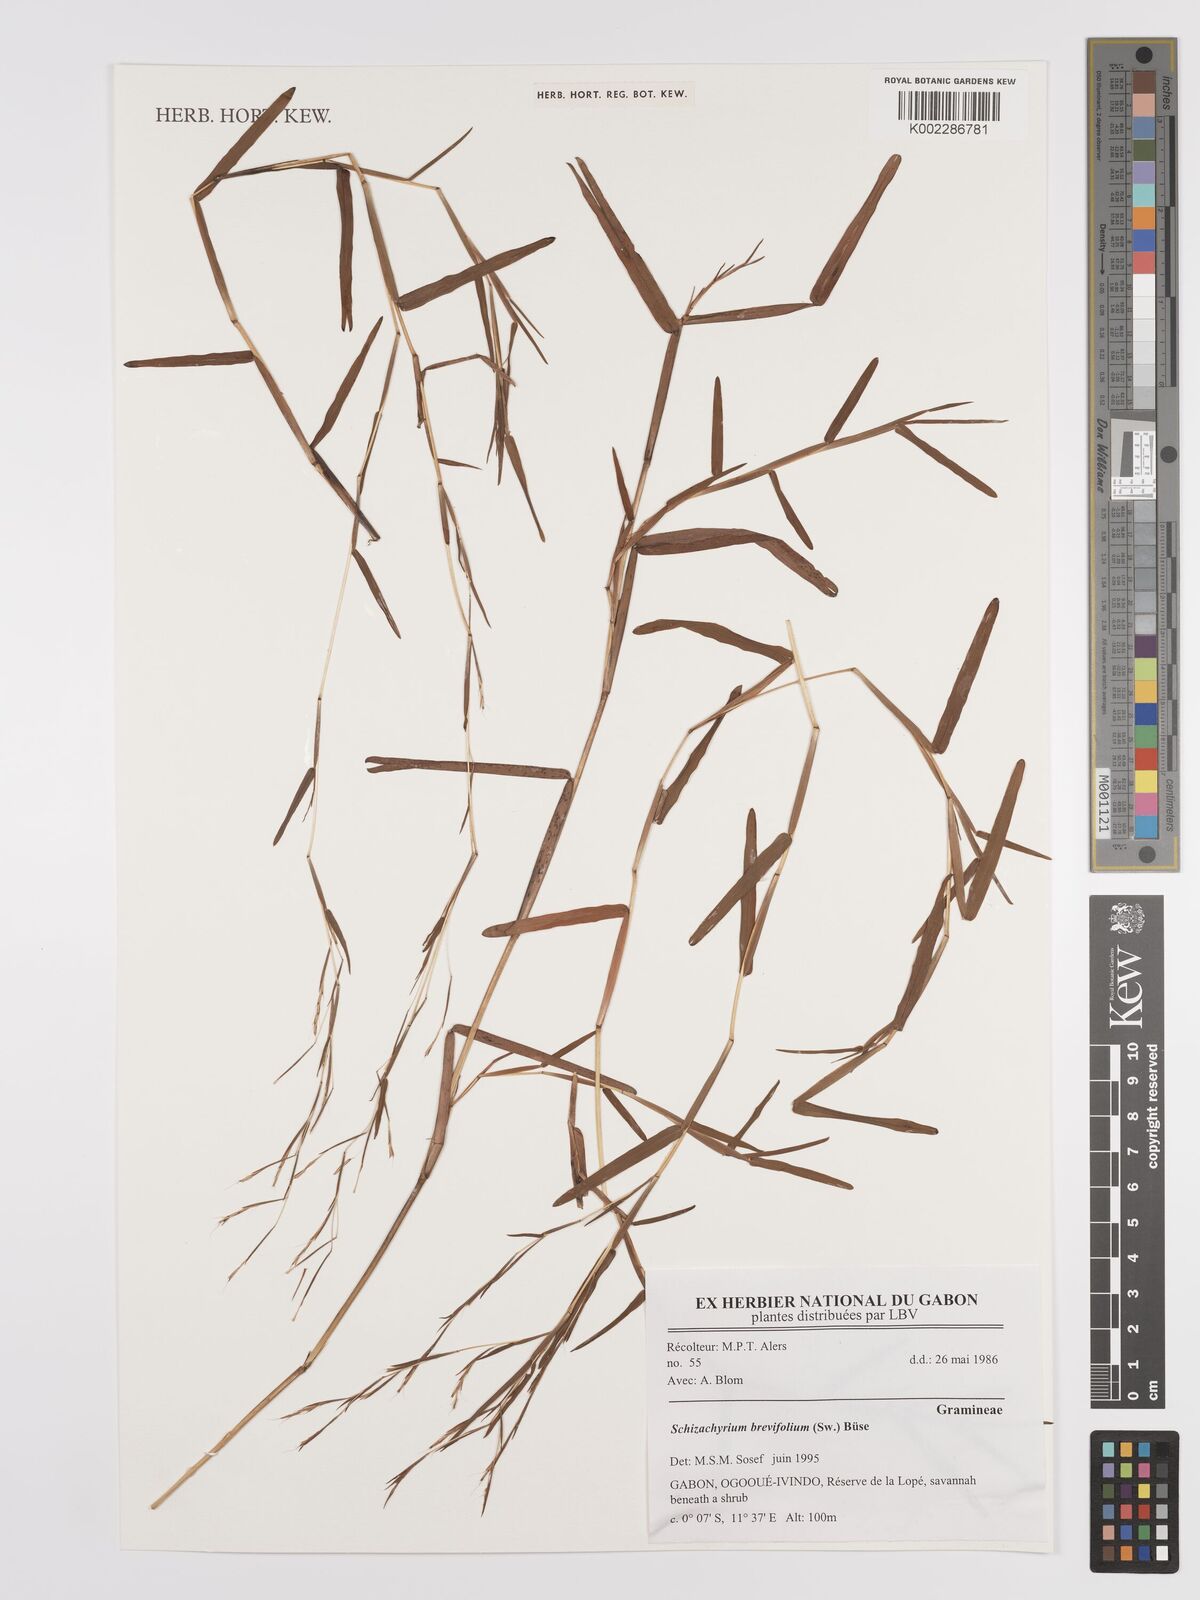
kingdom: Plantae
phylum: Tracheophyta
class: Liliopsida
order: Poales
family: Poaceae
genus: Schizachyrium
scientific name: Schizachyrium brevifolium
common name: Serillo dulce
